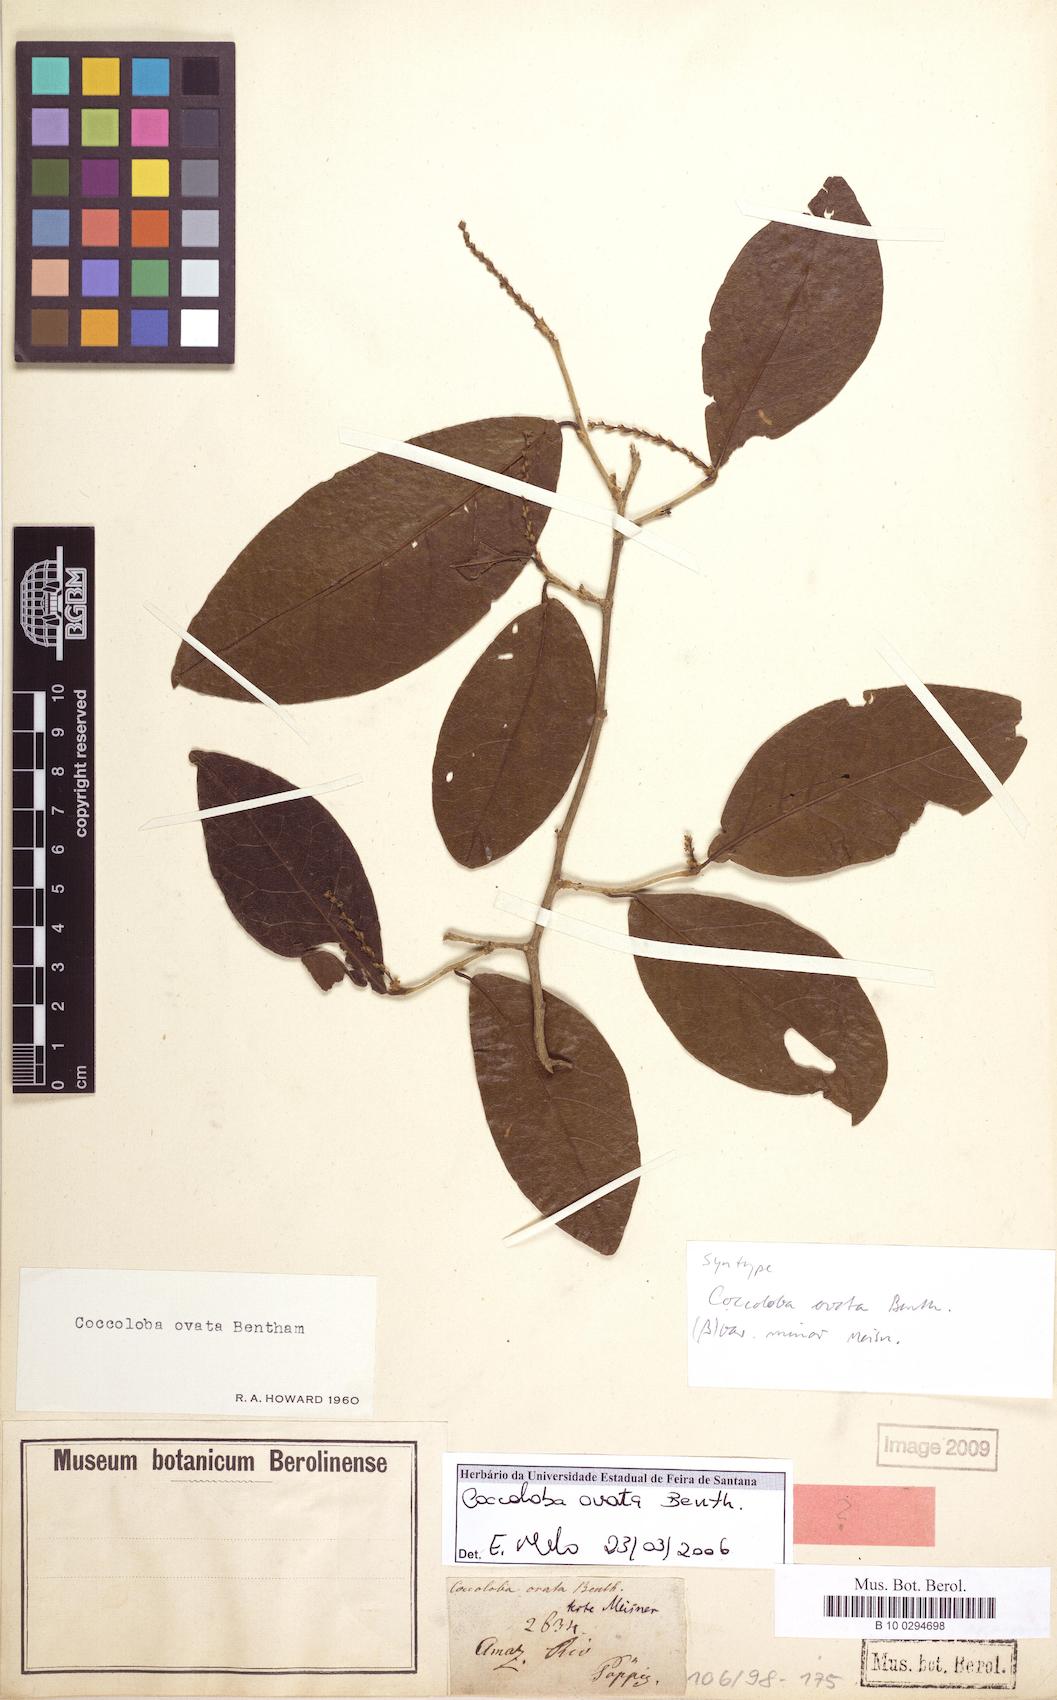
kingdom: Plantae
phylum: Tracheophyta
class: Magnoliopsida
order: Caryophyllales
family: Polygonaceae
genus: Coccoloba
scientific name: Coccoloba ovata
